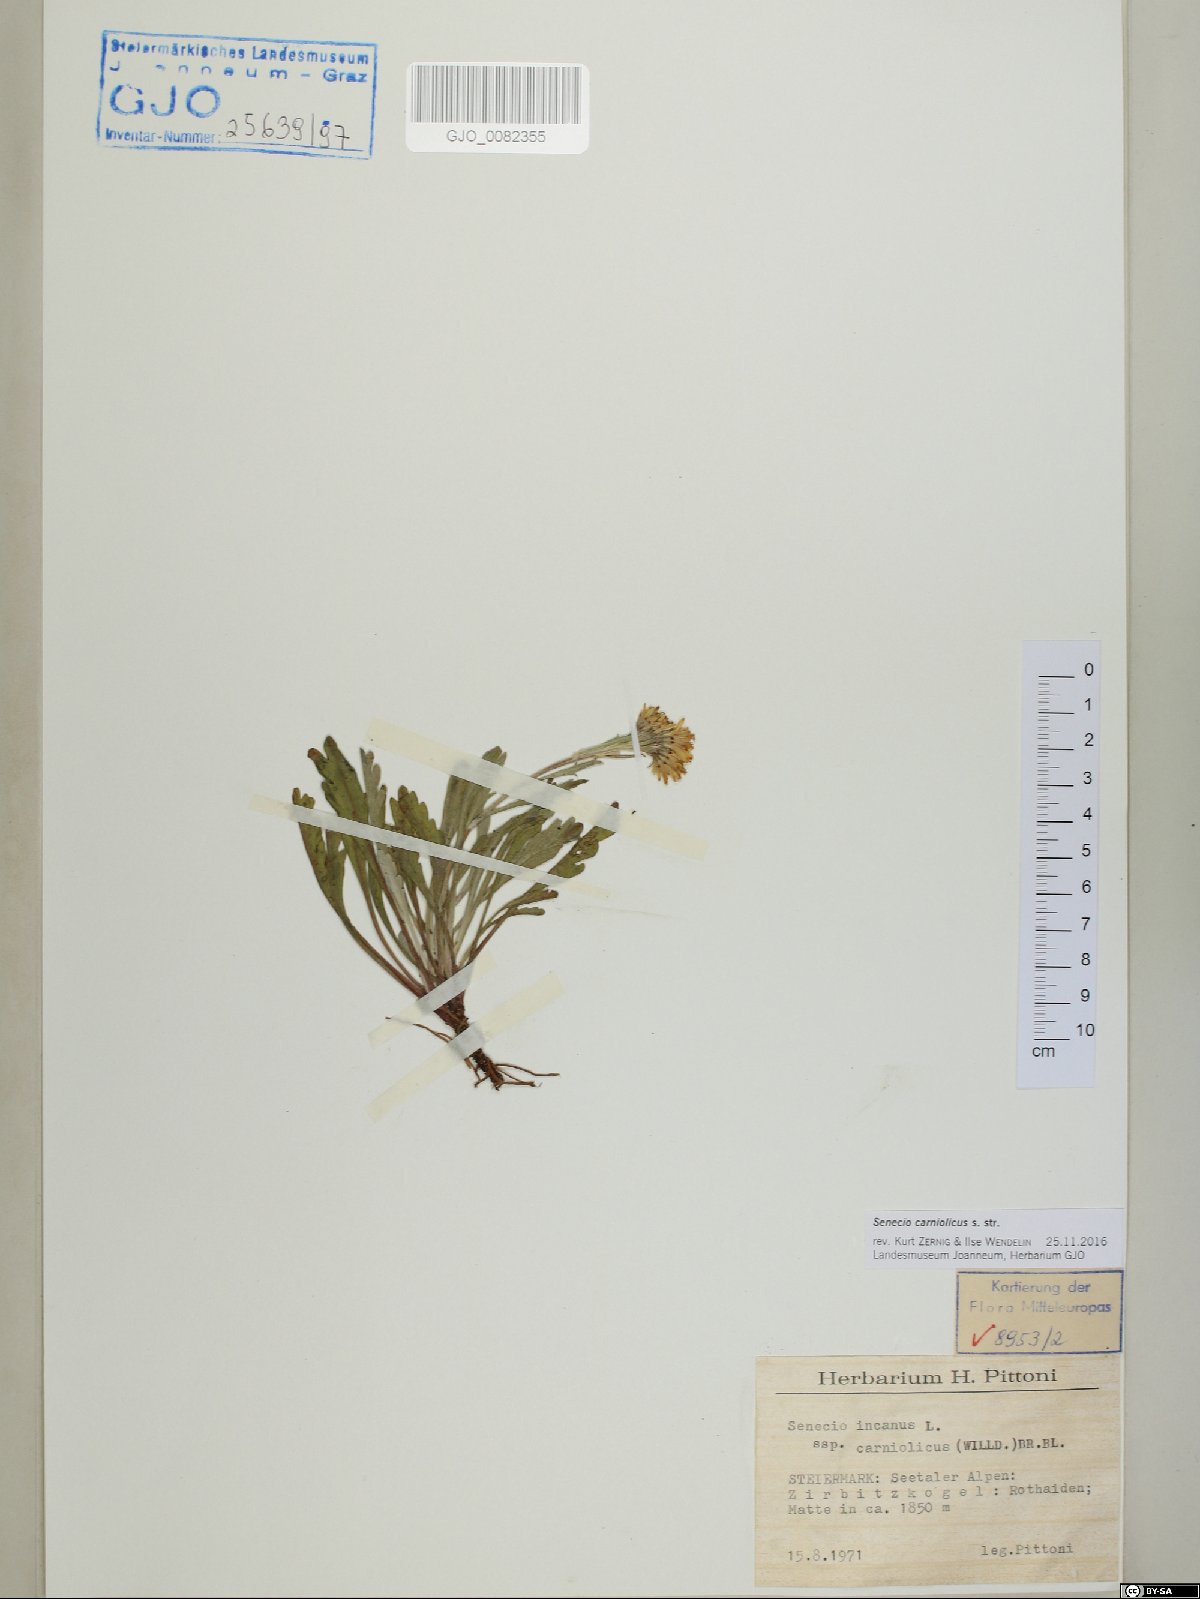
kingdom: Plantae
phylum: Tracheophyta
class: Magnoliopsida
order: Asterales
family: Asteraceae
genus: Jacobaea
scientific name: Jacobaea carniolica
